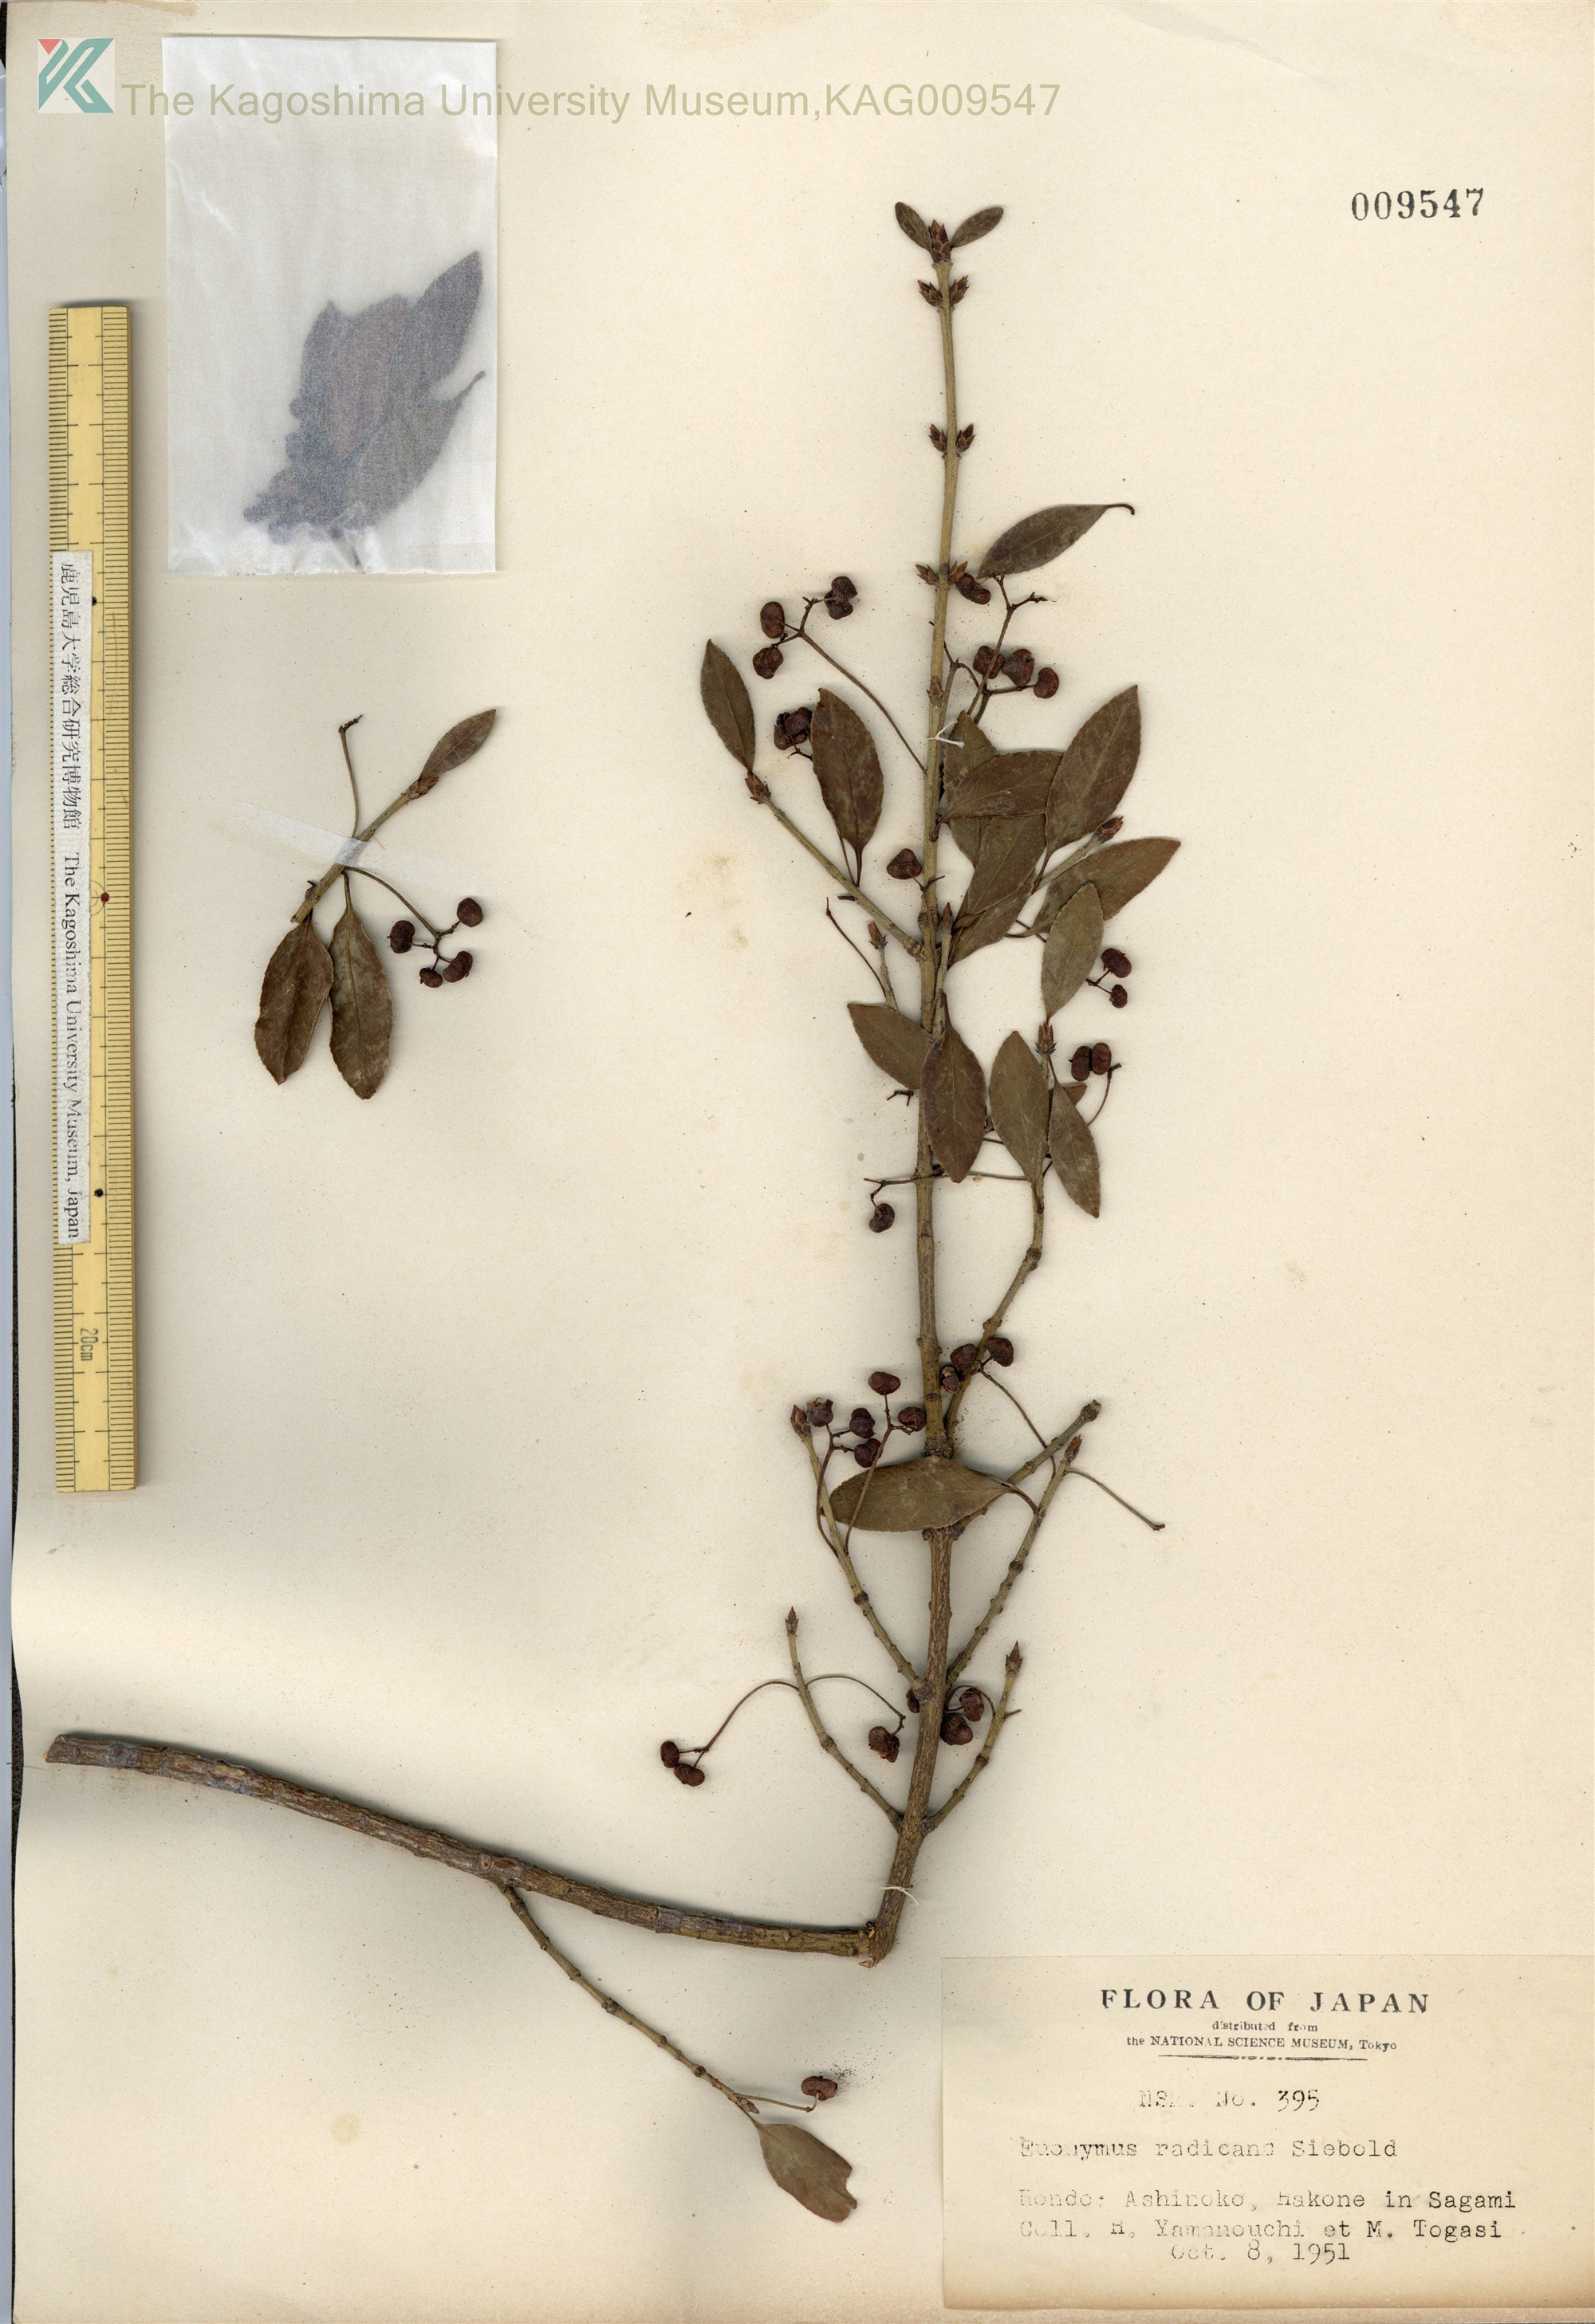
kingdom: Plantae
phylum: Tracheophyta
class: Magnoliopsida
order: Celastrales
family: Celastraceae
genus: Euonymus
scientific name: Euonymus fortunei
